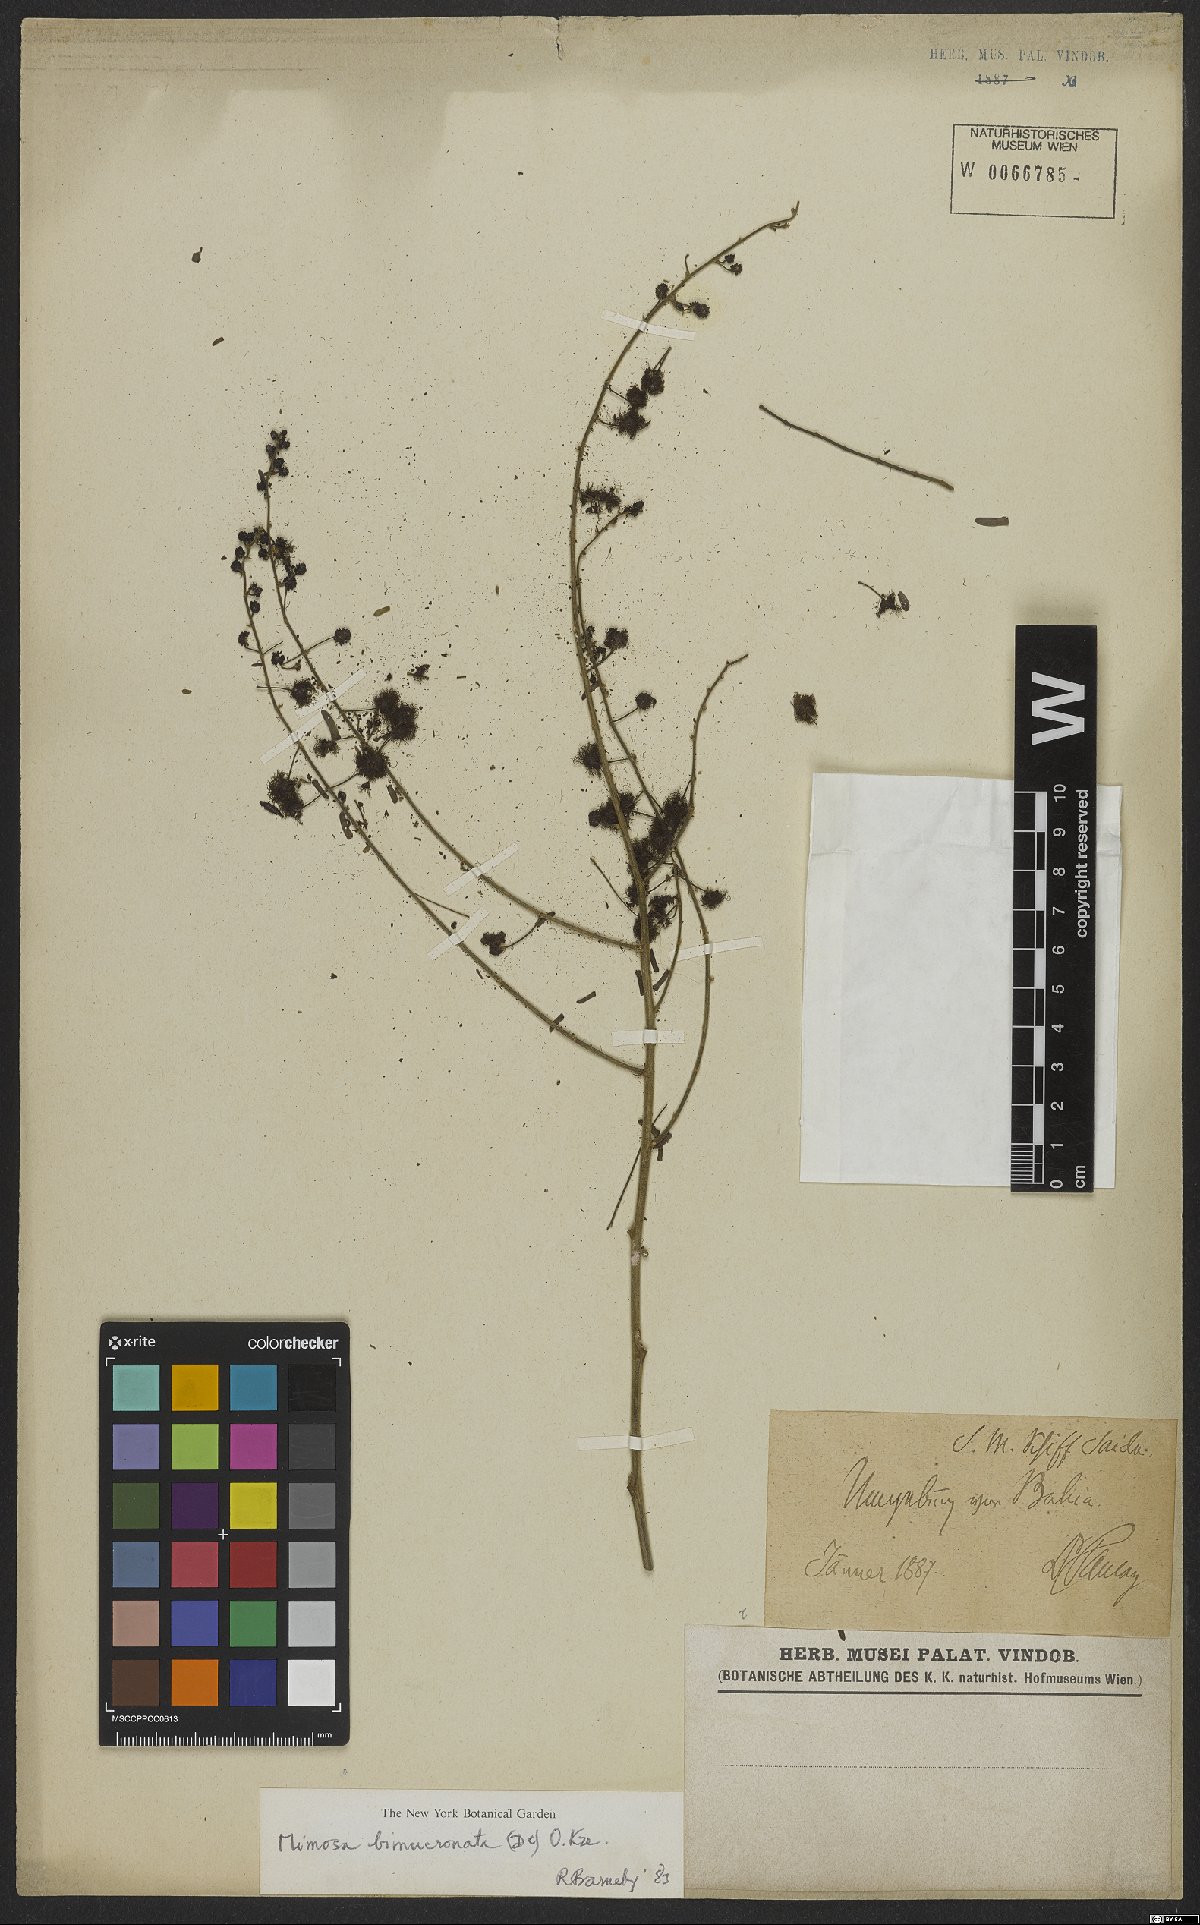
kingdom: Plantae
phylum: Tracheophyta
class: Magnoliopsida
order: Fabales
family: Fabaceae
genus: Mimosa
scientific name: Mimosa bimucronata
